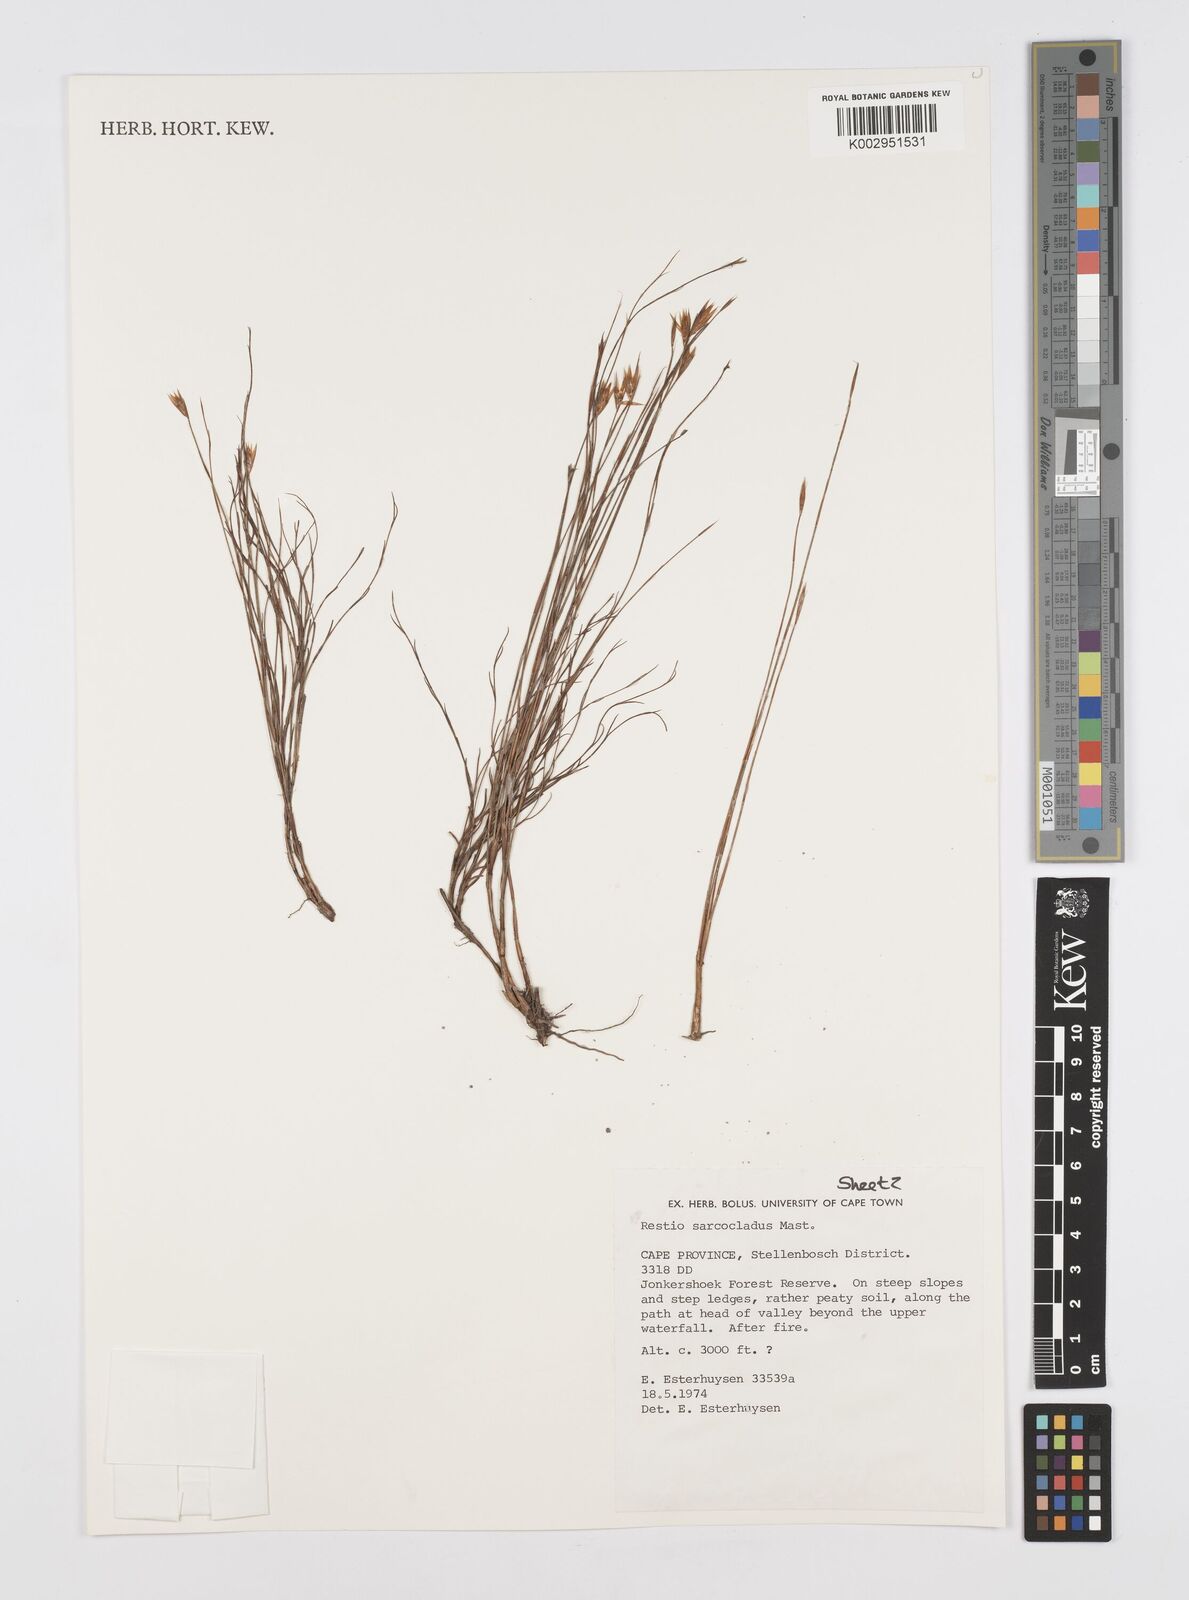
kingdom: Plantae
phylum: Tracheophyta
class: Liliopsida
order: Poales
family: Restionaceae
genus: Restio
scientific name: Restio saroclados
